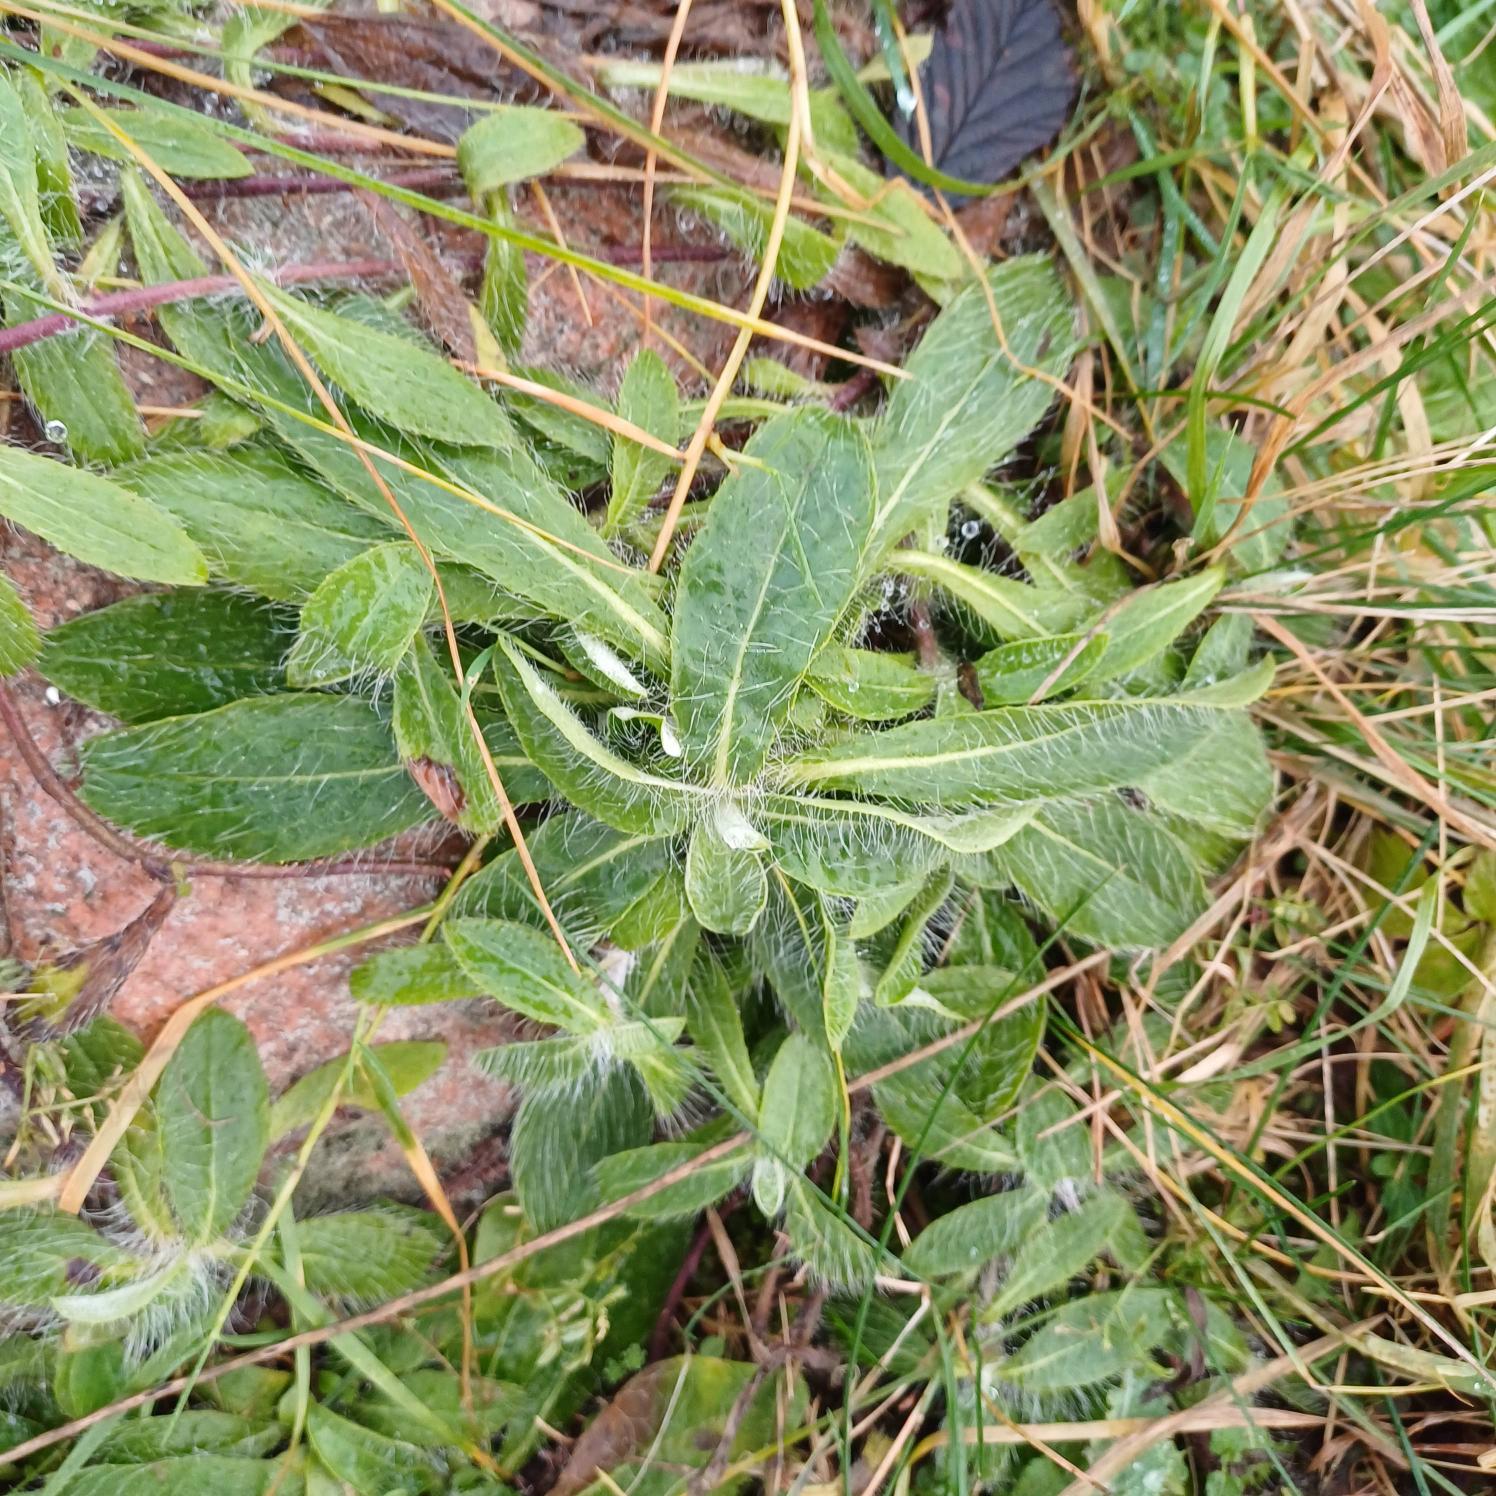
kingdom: Plantae
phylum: Tracheophyta
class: Magnoliopsida
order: Asterales
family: Asteraceae
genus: Pilosella
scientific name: Pilosella officinarum
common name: Håret høgeurt
